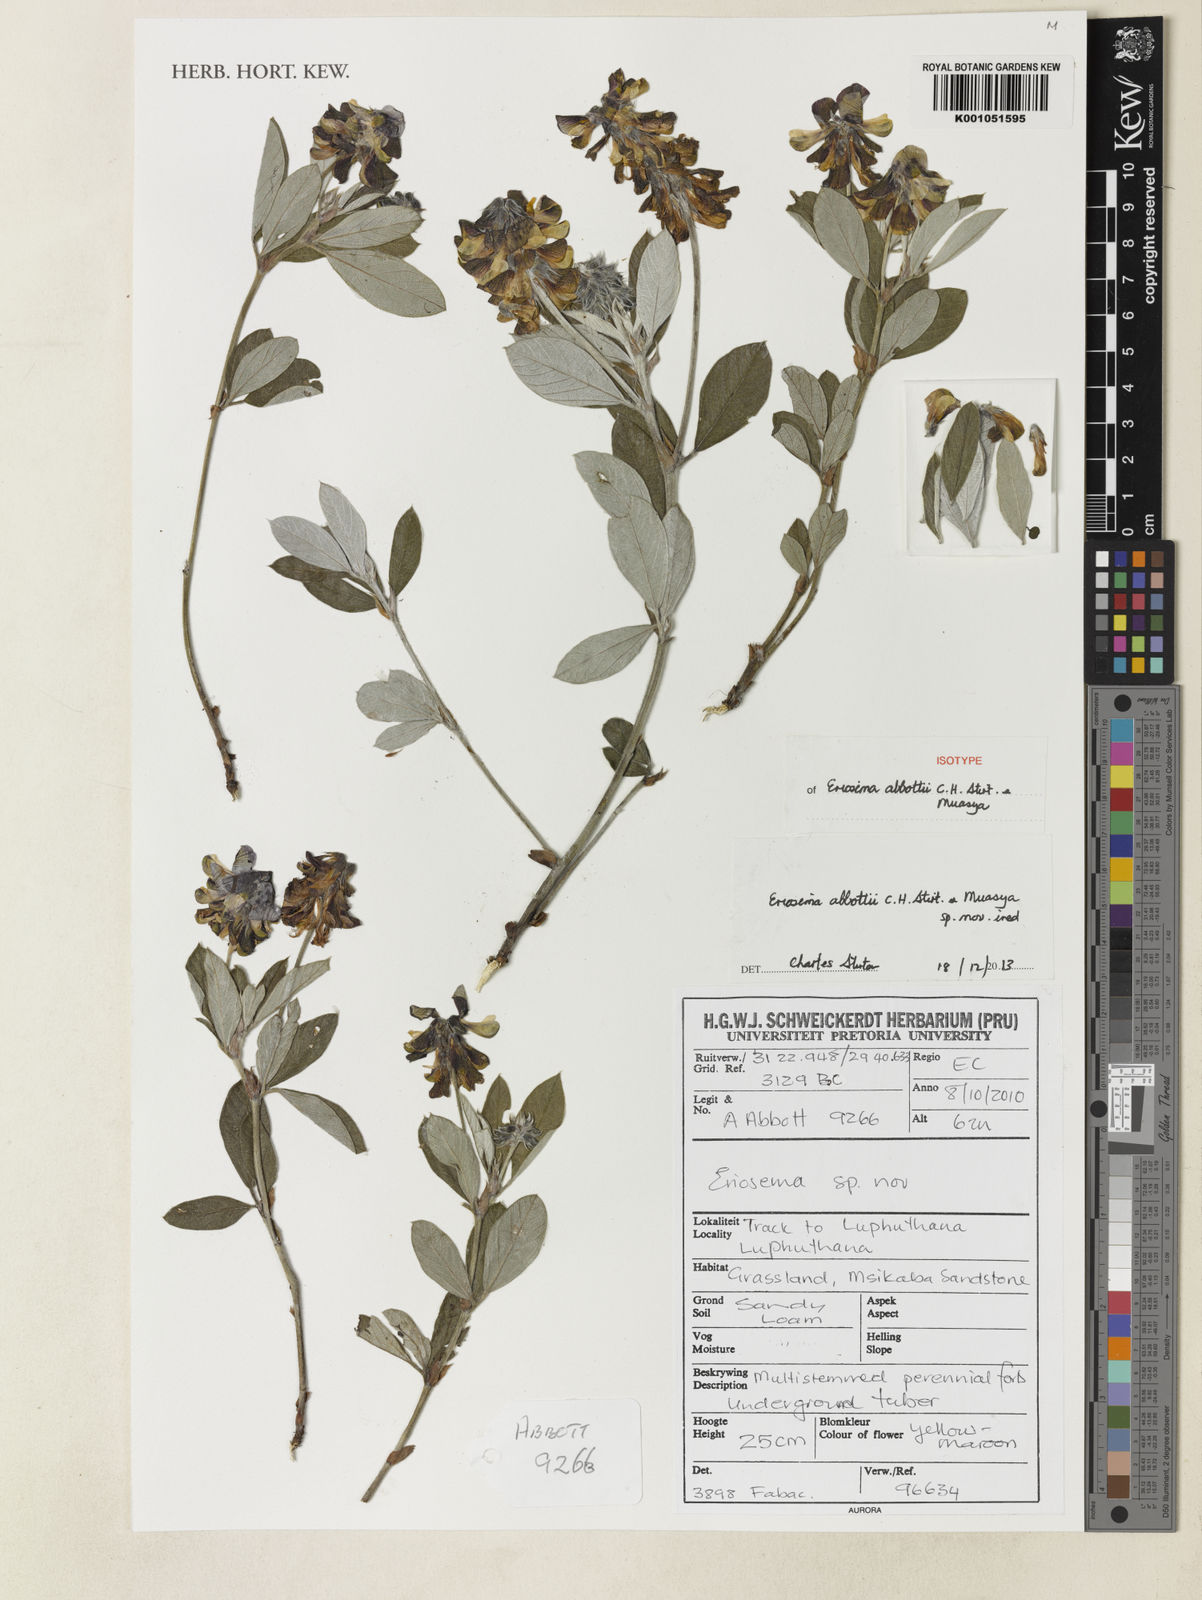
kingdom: Plantae
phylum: Tracheophyta
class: Magnoliopsida
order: Fabales
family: Fabaceae
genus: Eriosema
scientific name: Eriosema
